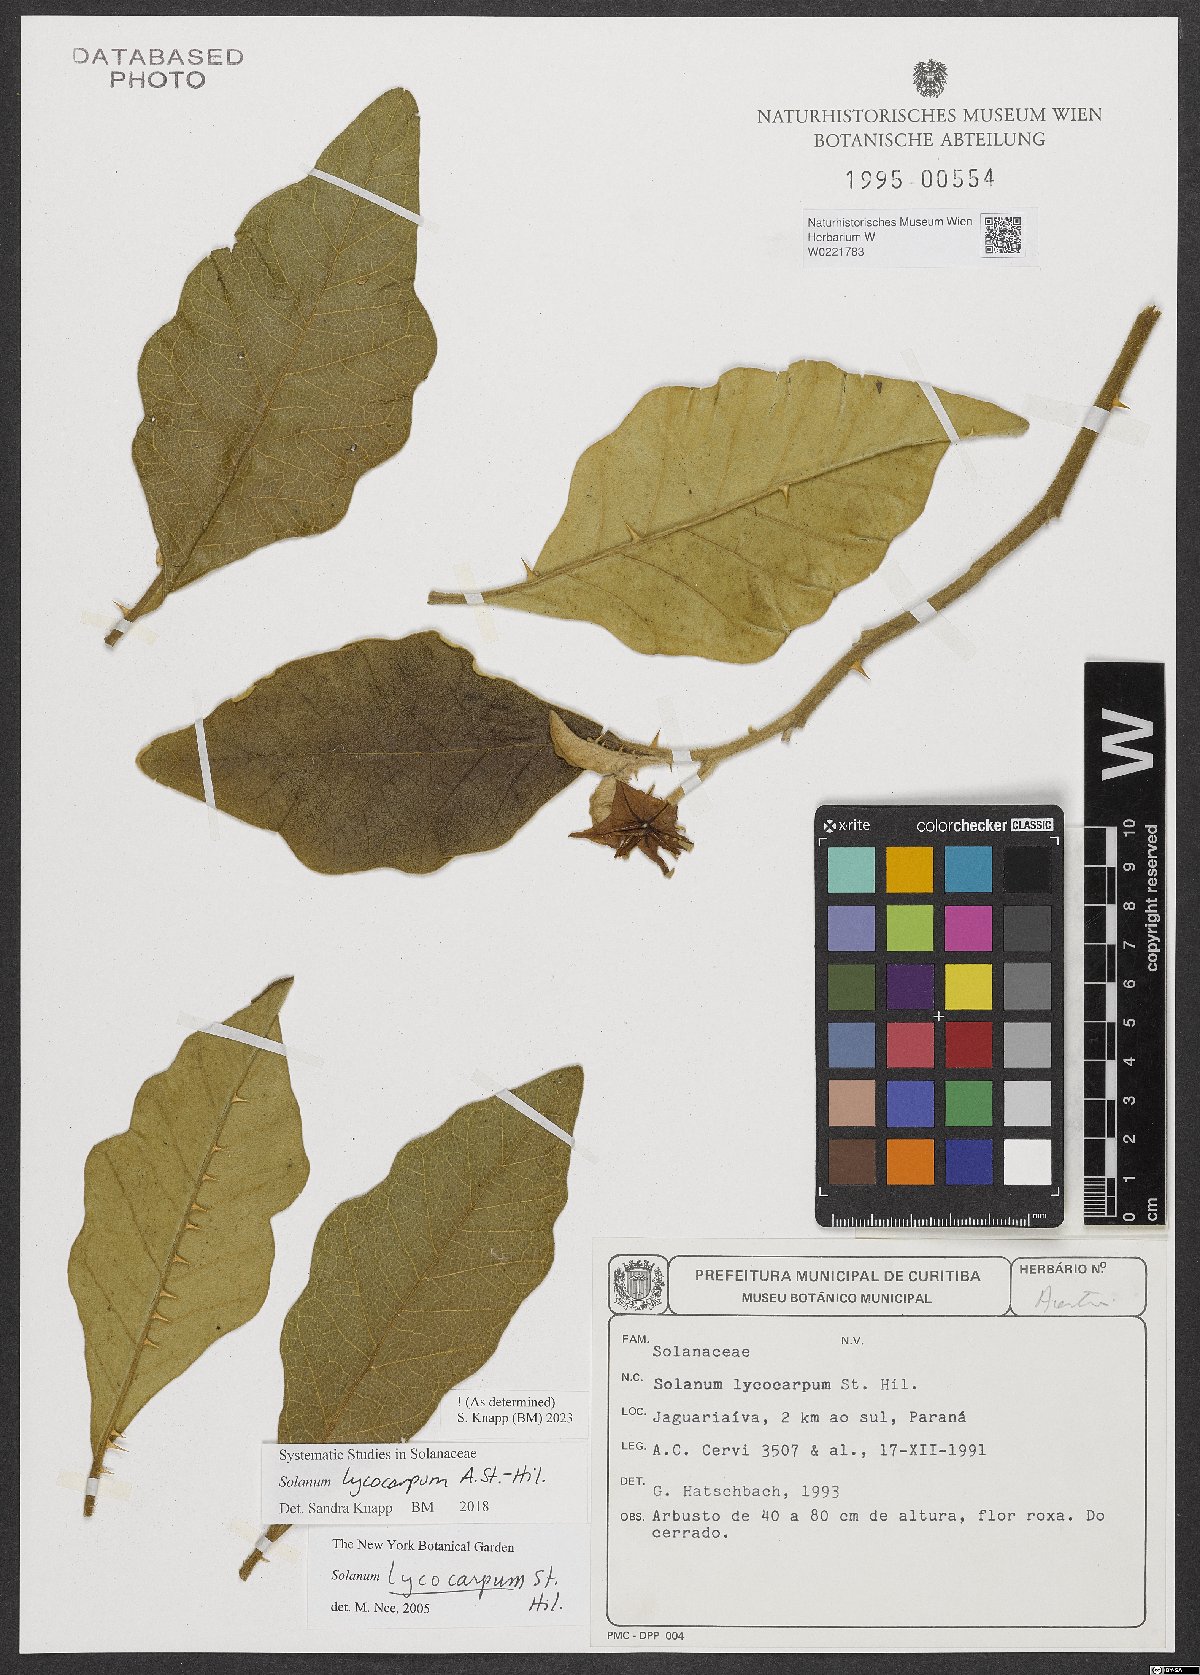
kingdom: Plantae
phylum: Tracheophyta
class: Magnoliopsida
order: Solanales
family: Solanaceae
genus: Solanum
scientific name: Solanum lycocarpum
